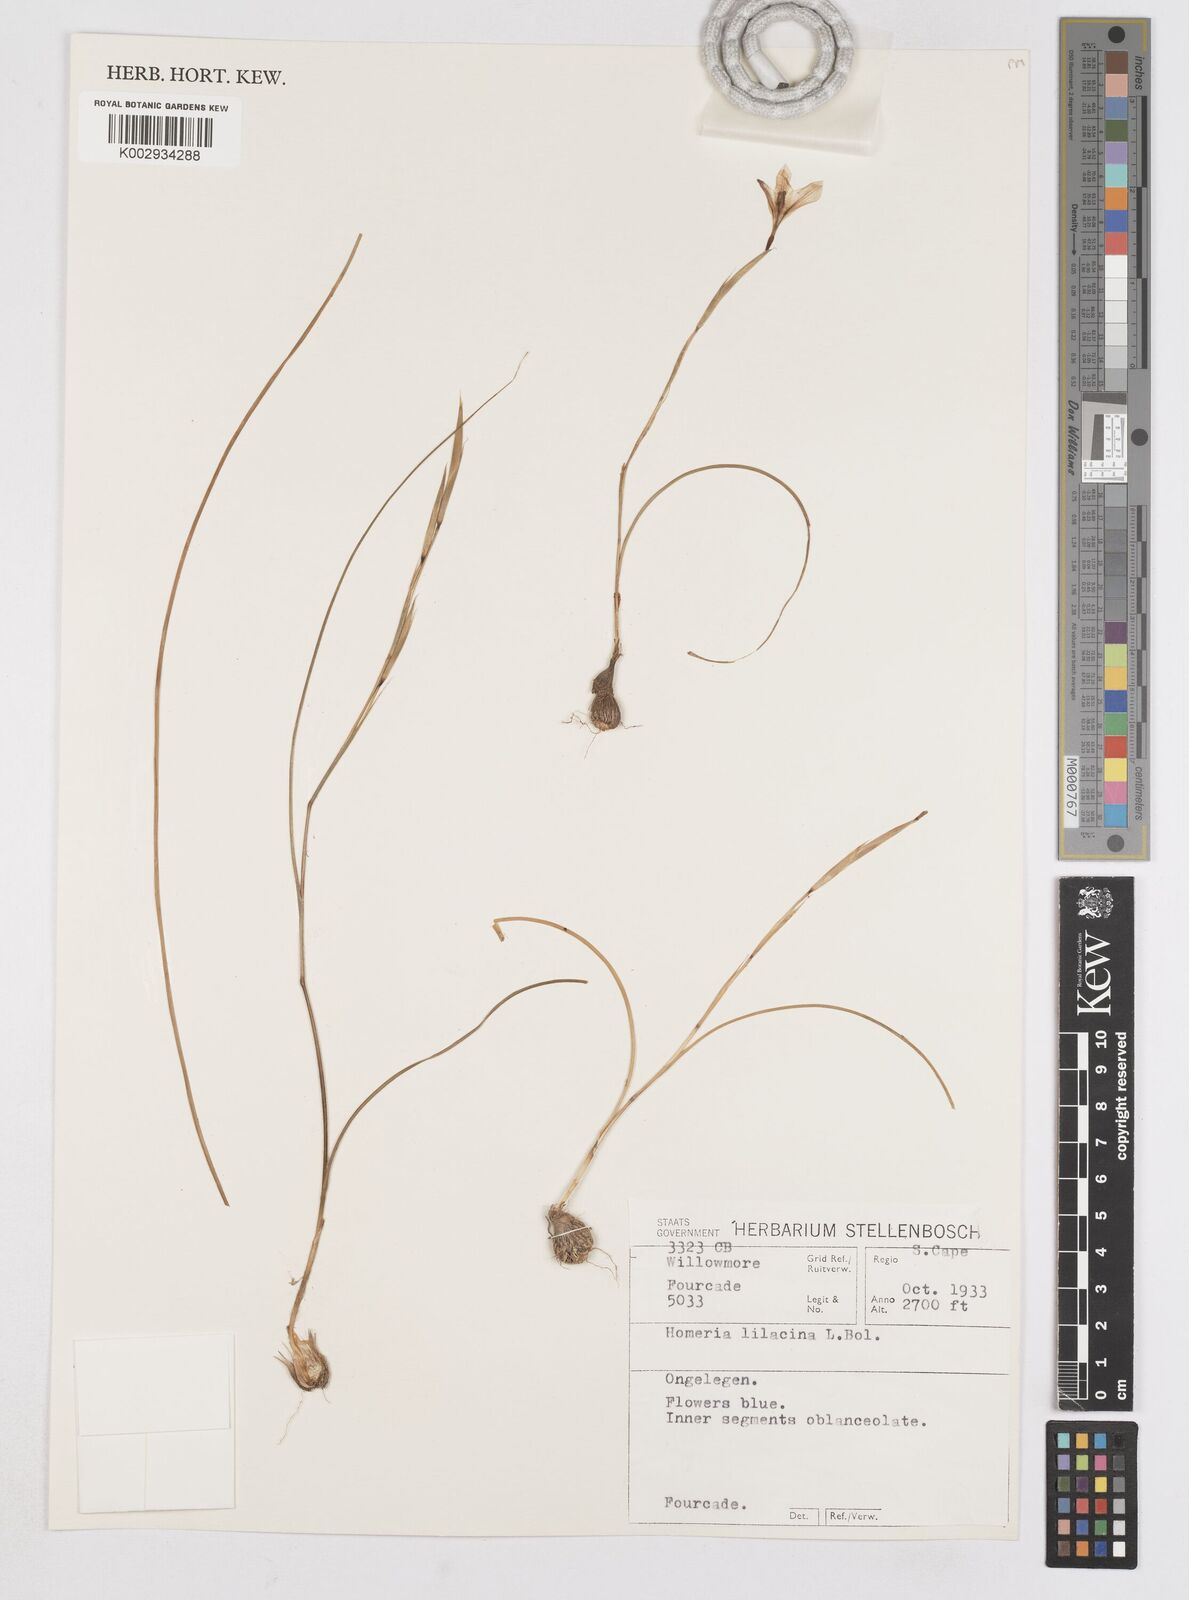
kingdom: Plantae
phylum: Tracheophyta
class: Liliopsida
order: Asparagales
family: Iridaceae
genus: Moraea
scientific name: Moraea
